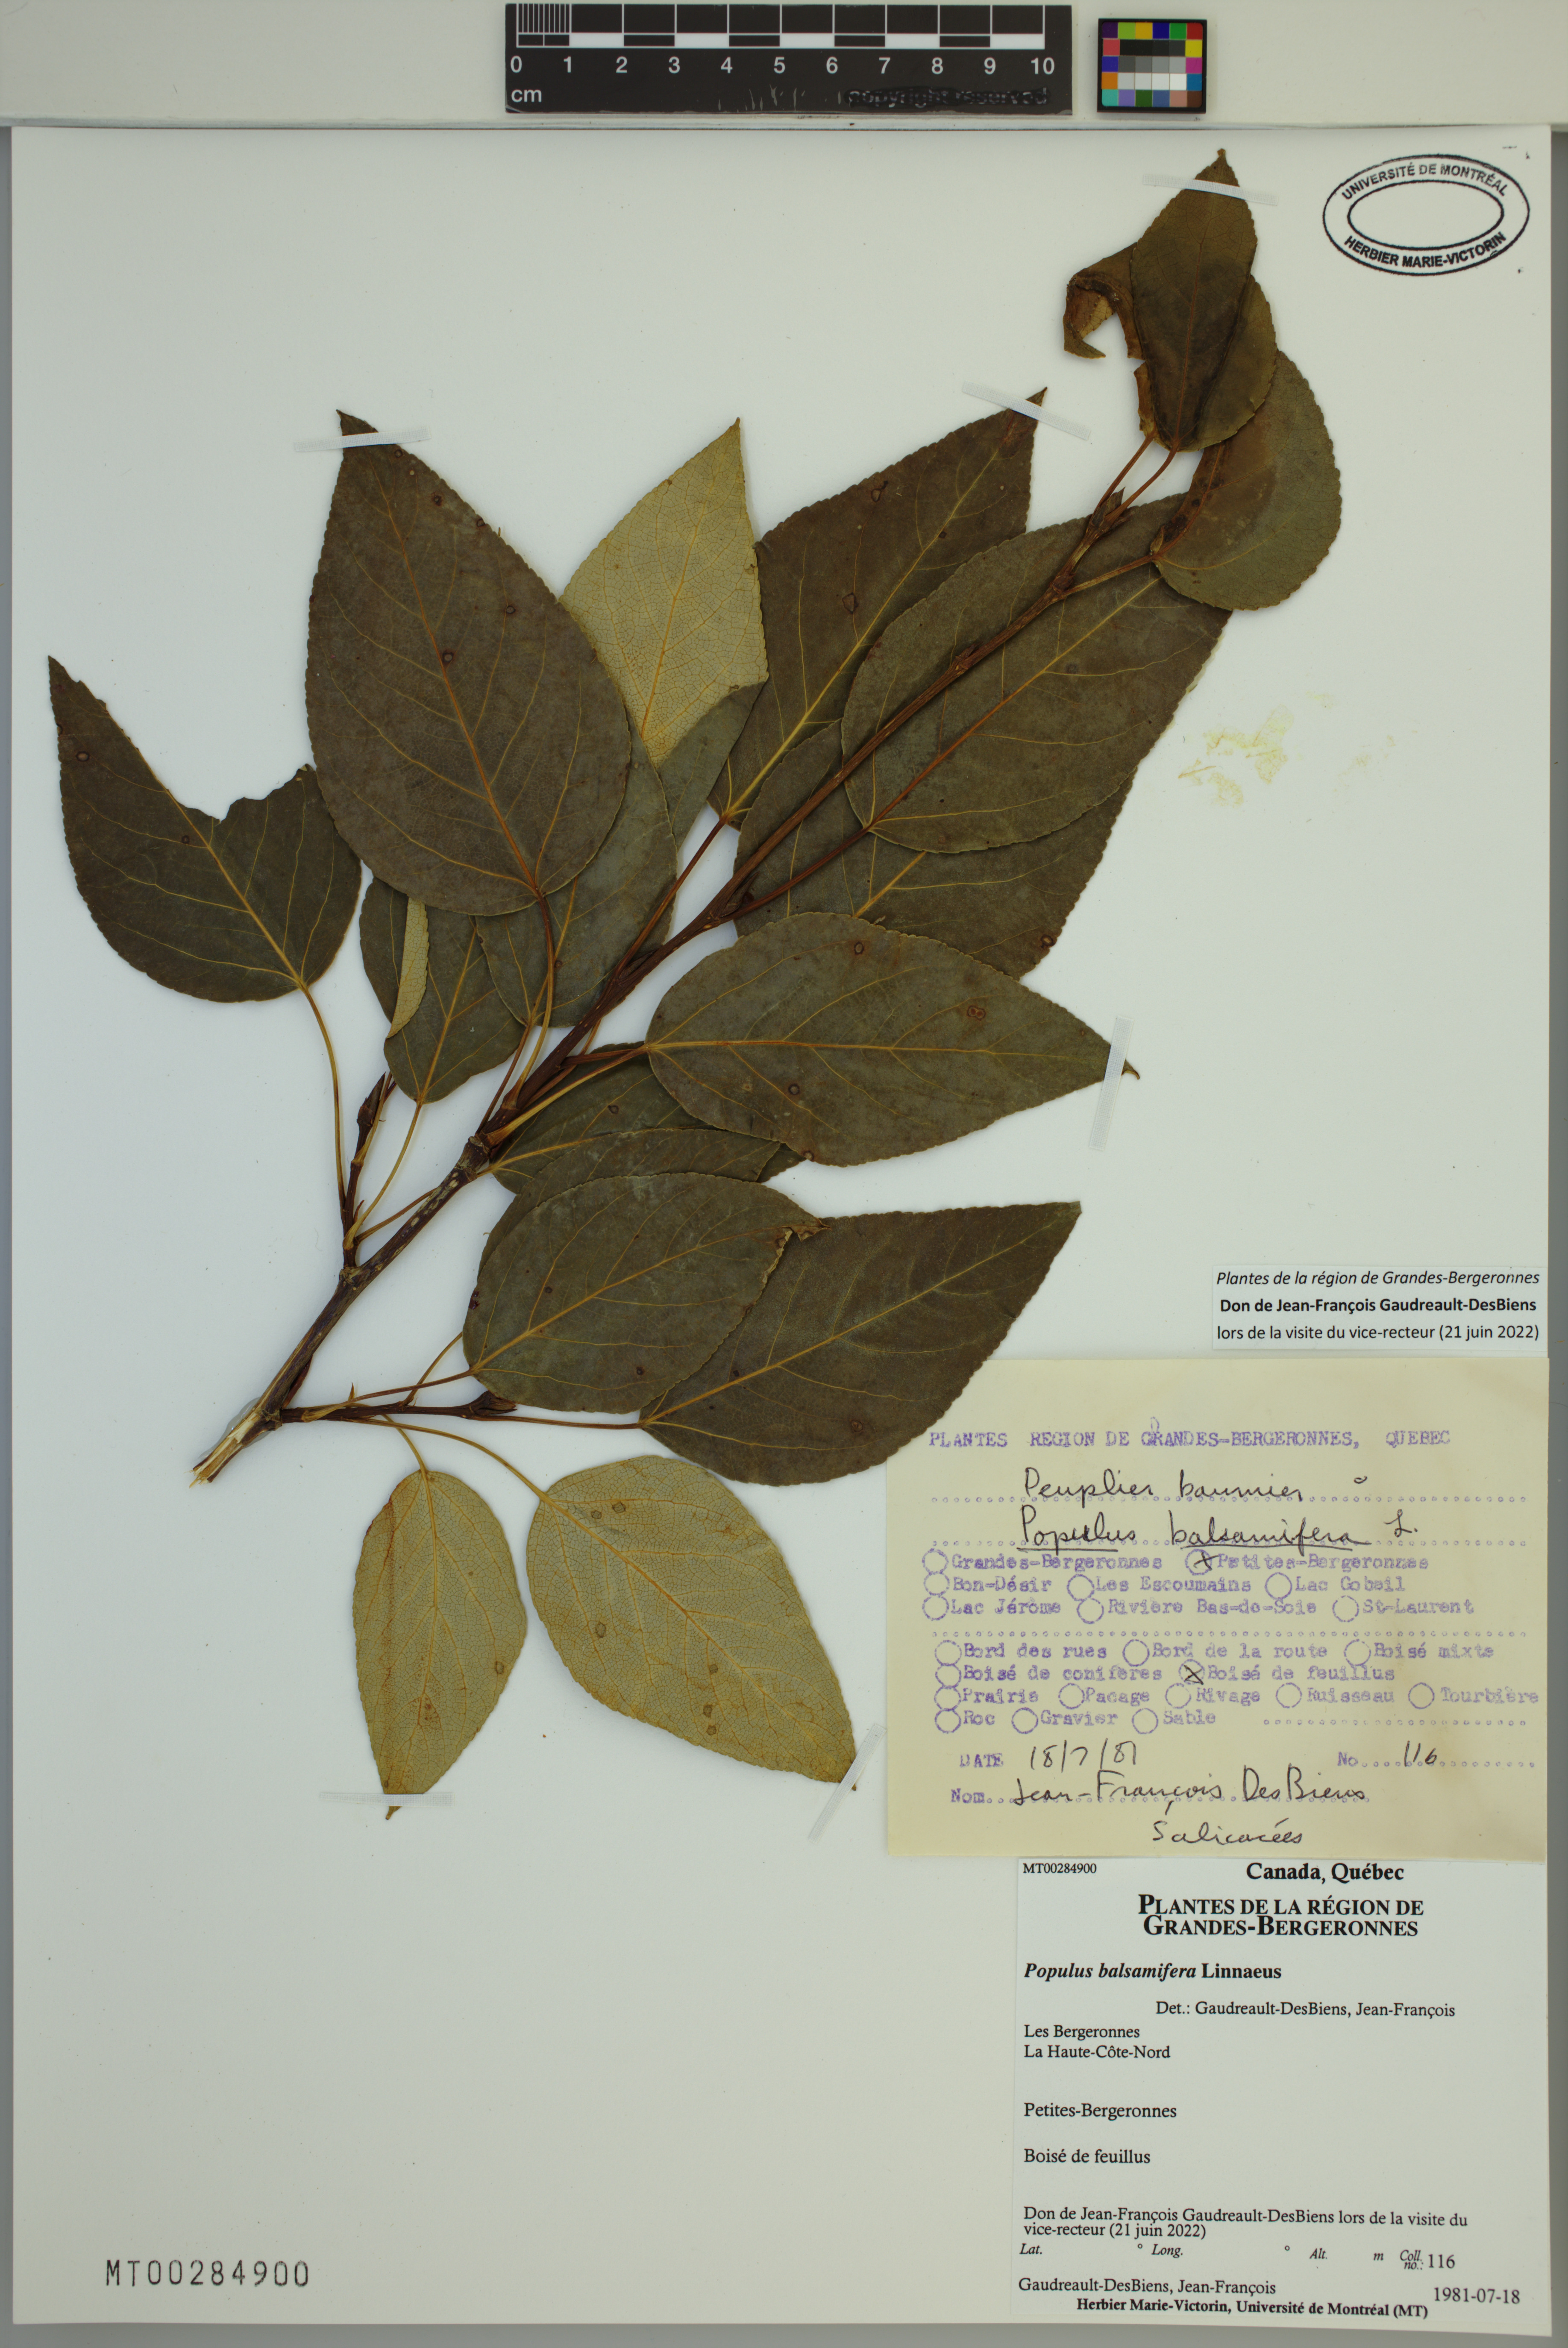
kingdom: Plantae
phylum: Tracheophyta
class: Magnoliopsida
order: Malpighiales
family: Salicaceae
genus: Populus
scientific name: Populus balsamifera
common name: Balsam poplar
